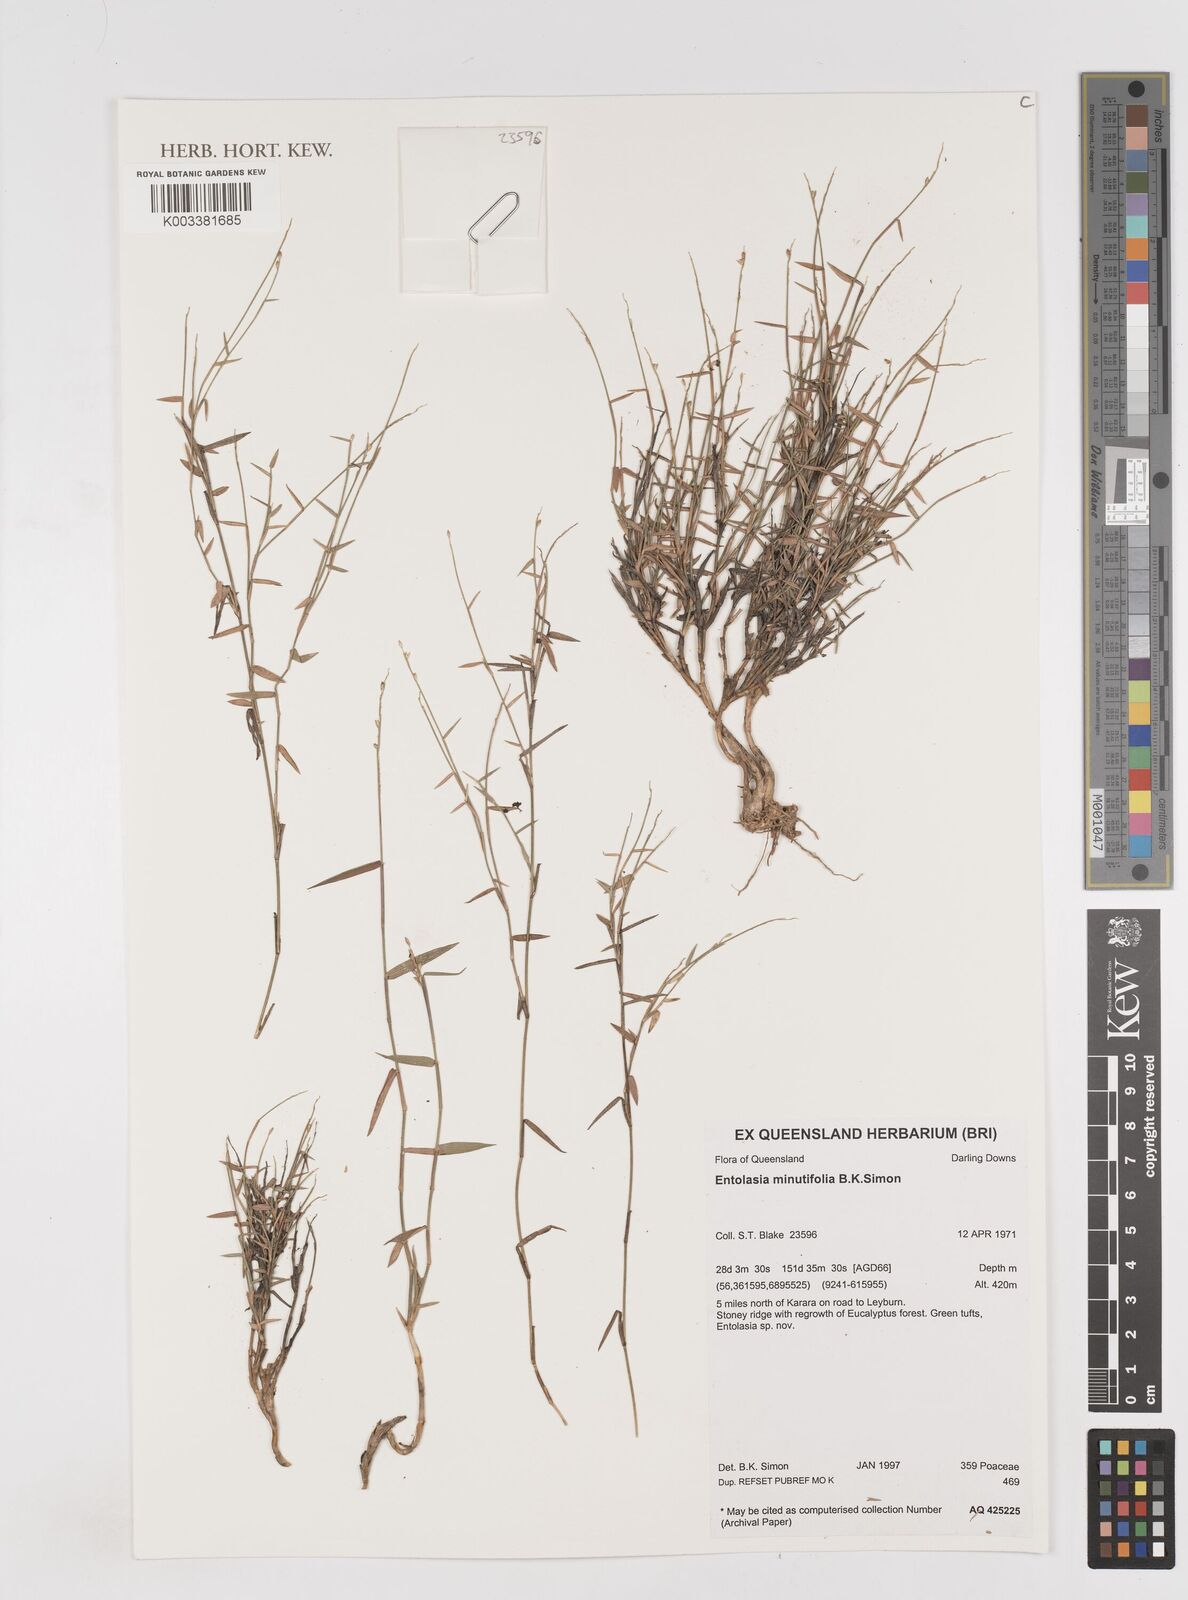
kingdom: Plantae
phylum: Tracheophyta
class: Liliopsida
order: Poales
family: Poaceae
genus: Entolasia
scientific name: Entolasia minutifolia
